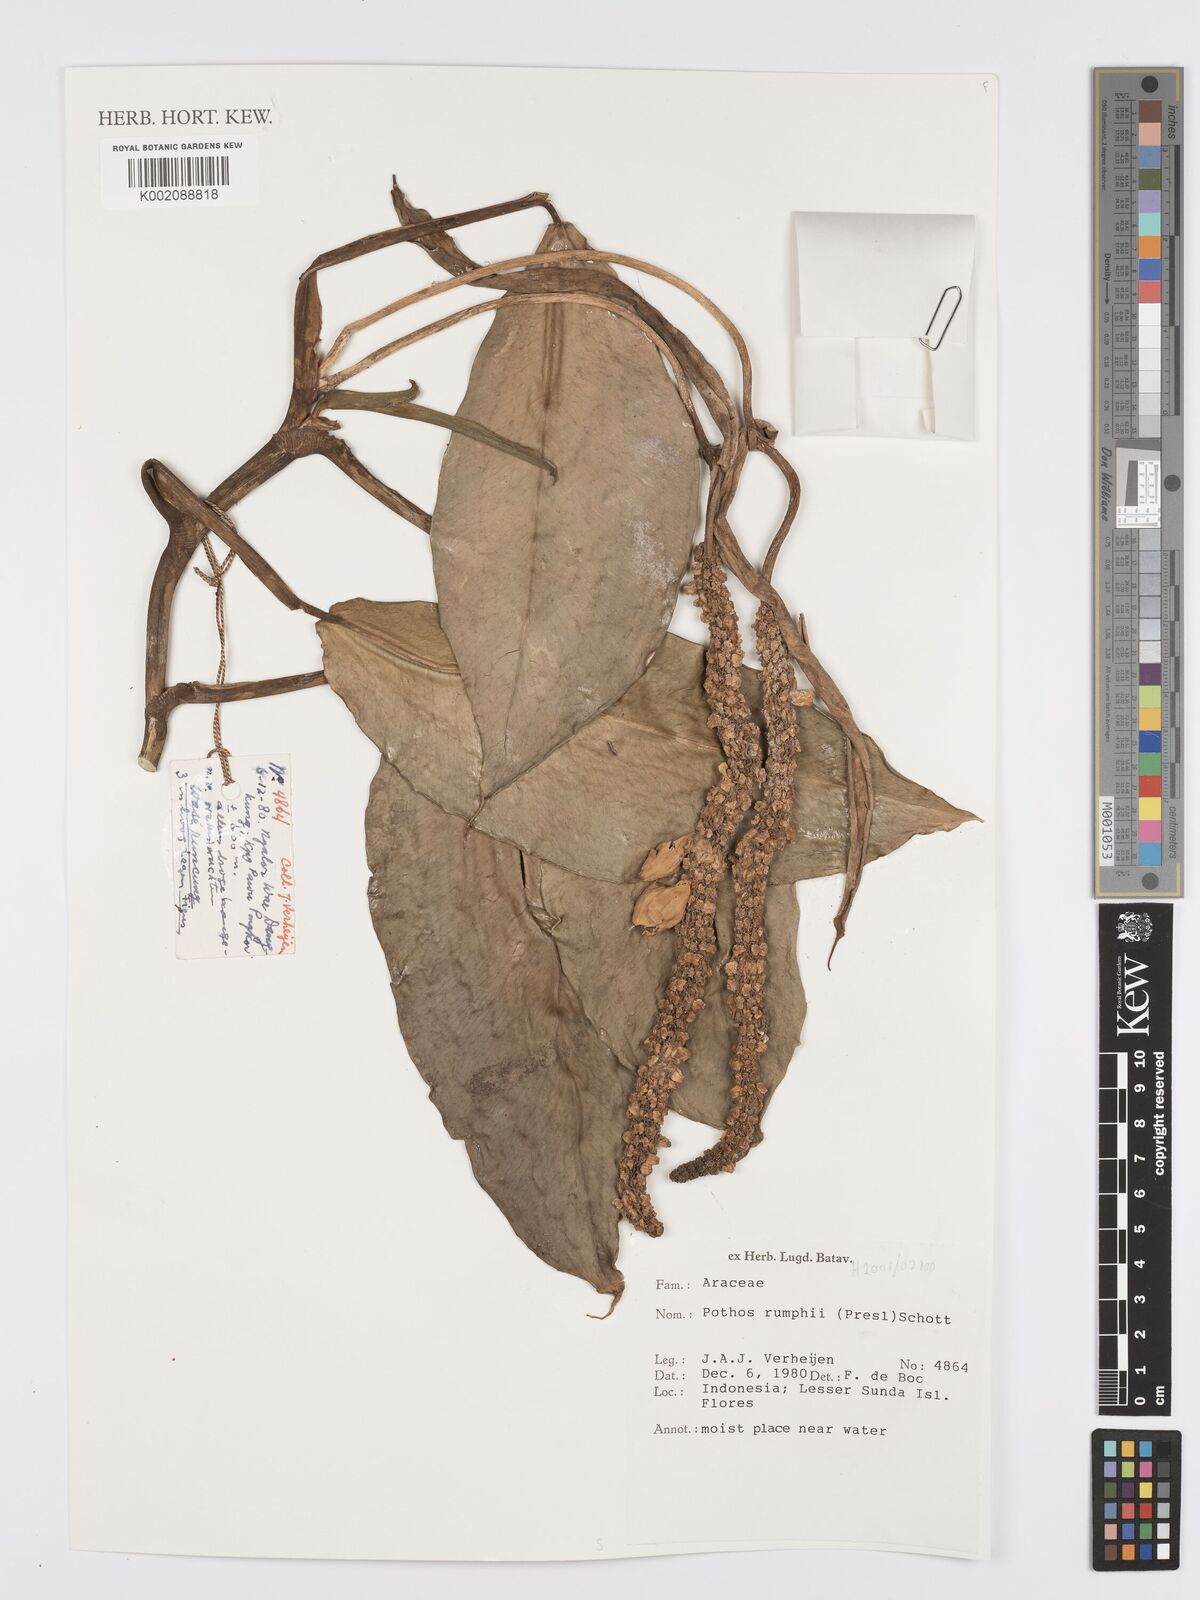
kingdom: Plantae
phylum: Tracheophyta
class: Liliopsida
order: Alismatales
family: Araceae
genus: Pothos
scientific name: Pothos tener
